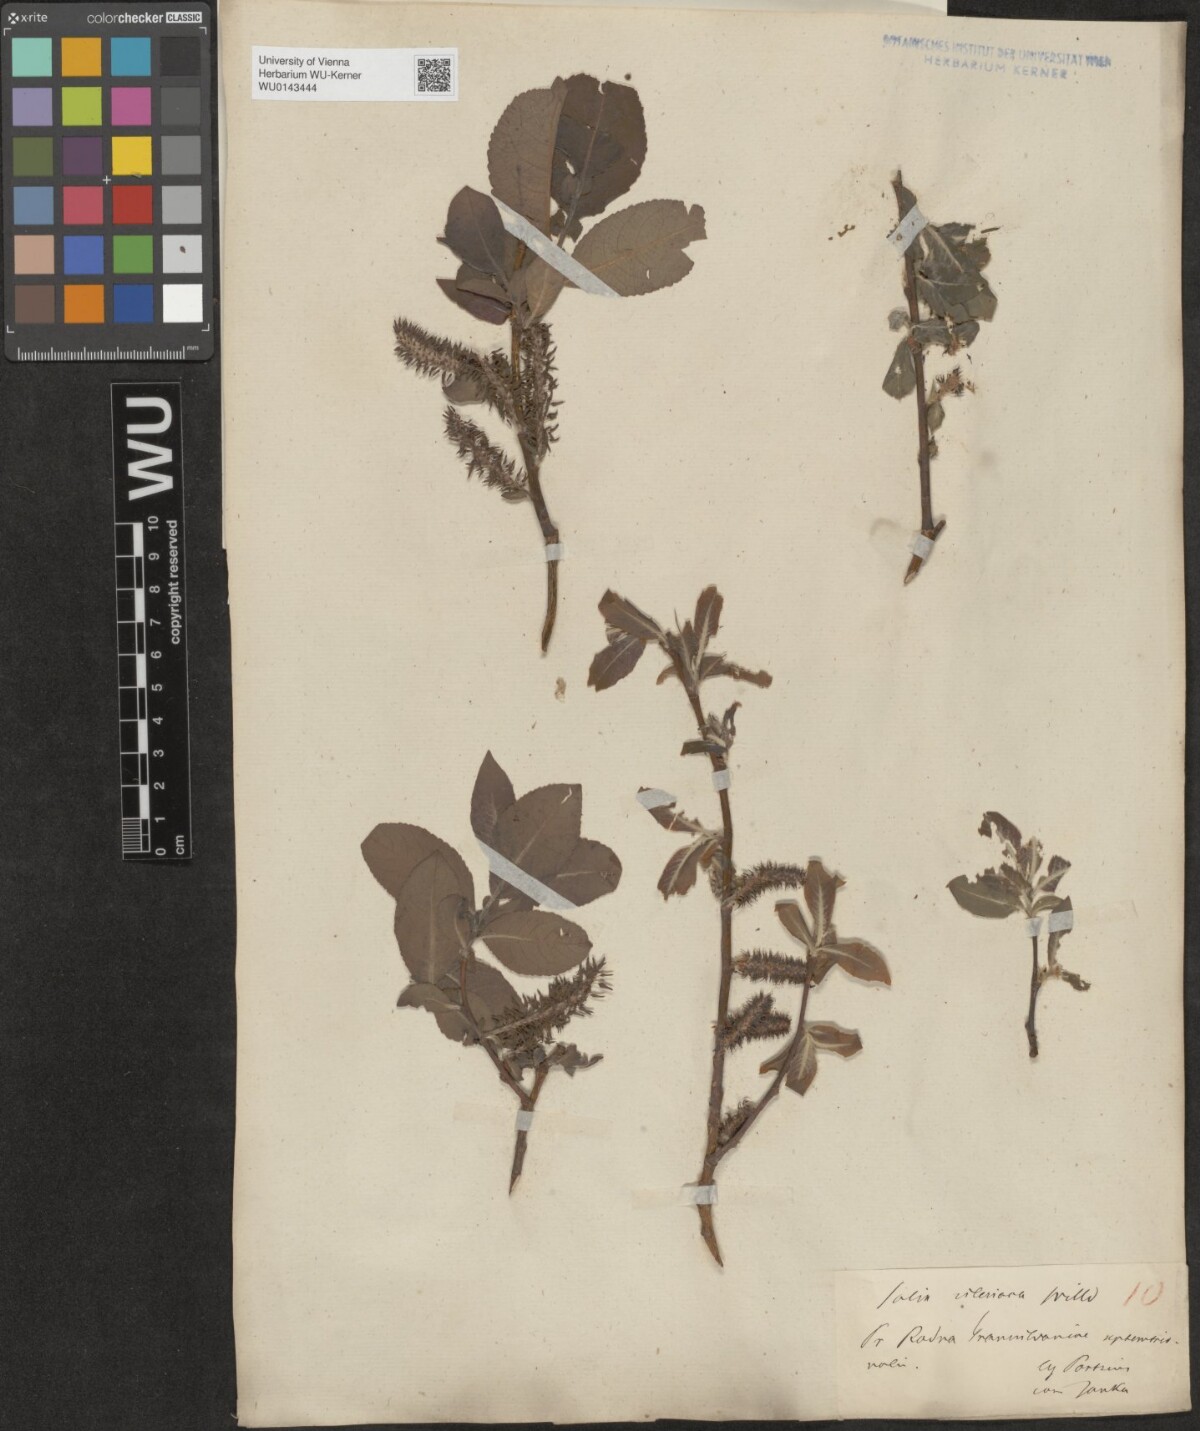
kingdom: Plantae
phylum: Tracheophyta
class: Magnoliopsida
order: Malpighiales
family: Salicaceae
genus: Salix
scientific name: Salix silesiaca
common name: Silesian willow
